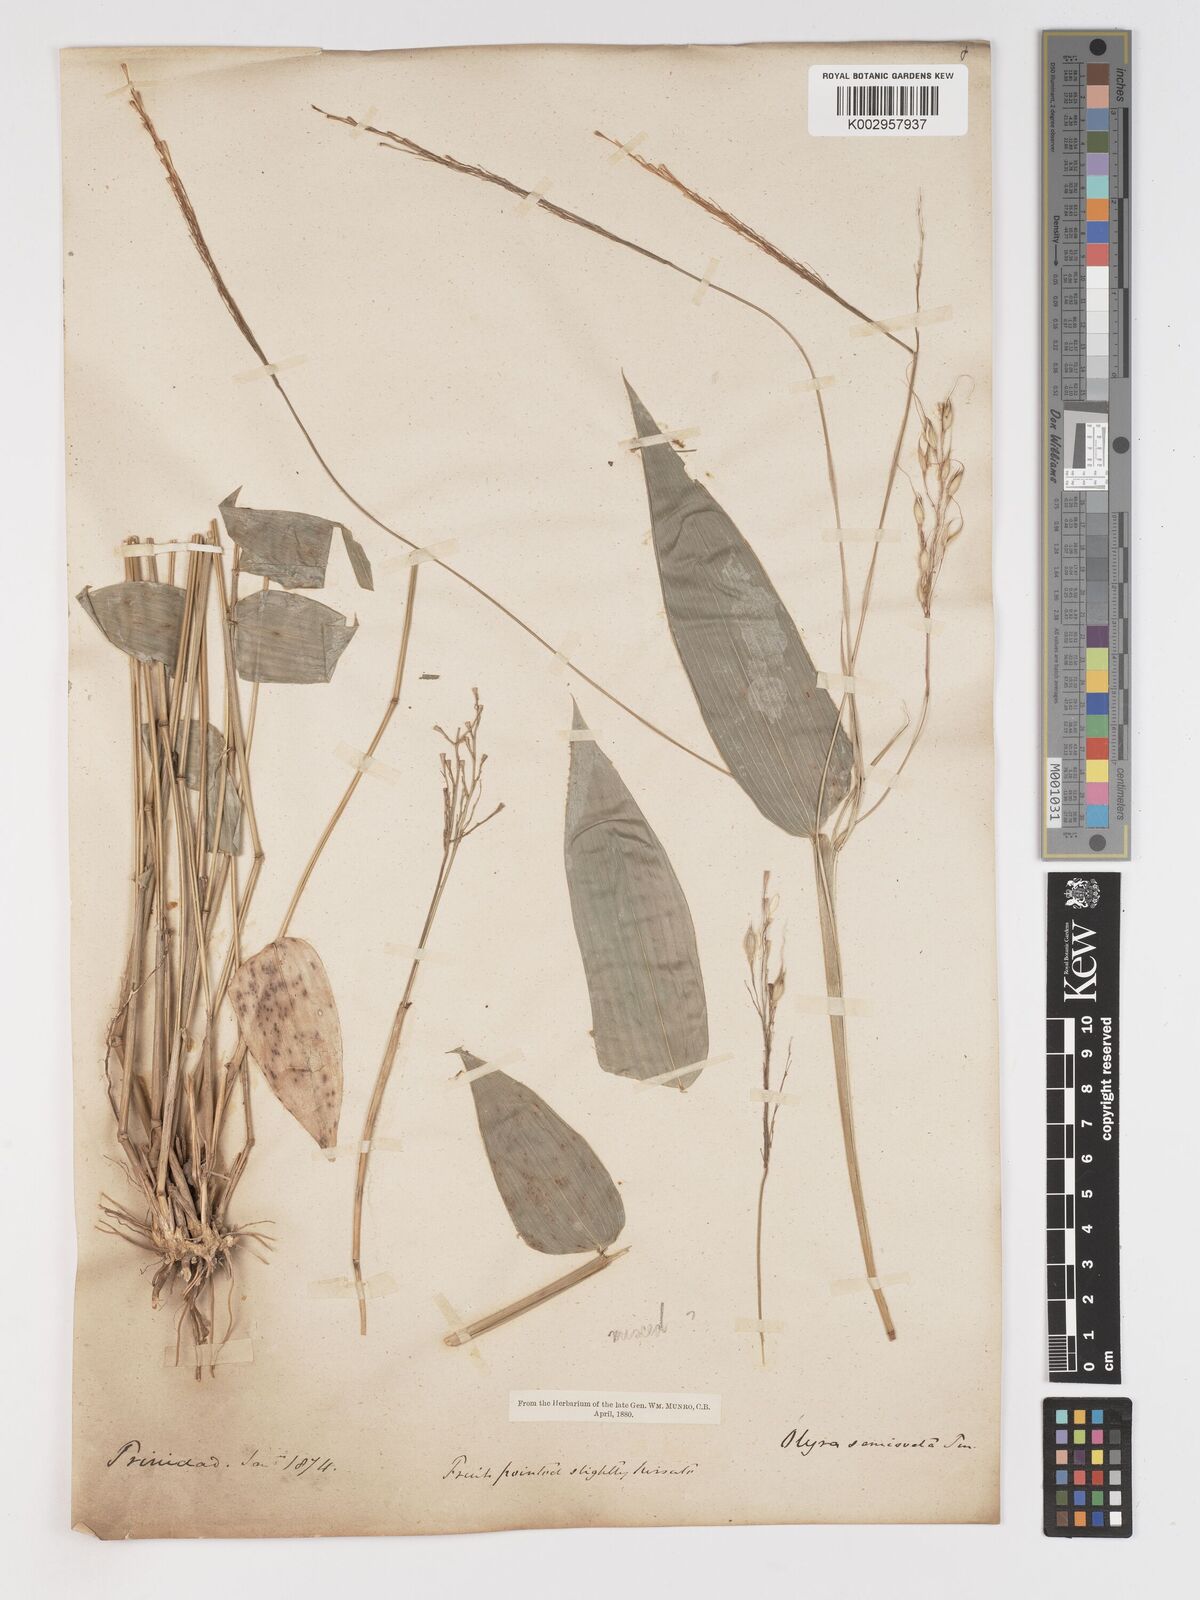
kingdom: Plantae
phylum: Tracheophyta
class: Liliopsida
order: Poales
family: Poaceae
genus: Olyra
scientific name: Olyra ciliatifolia
